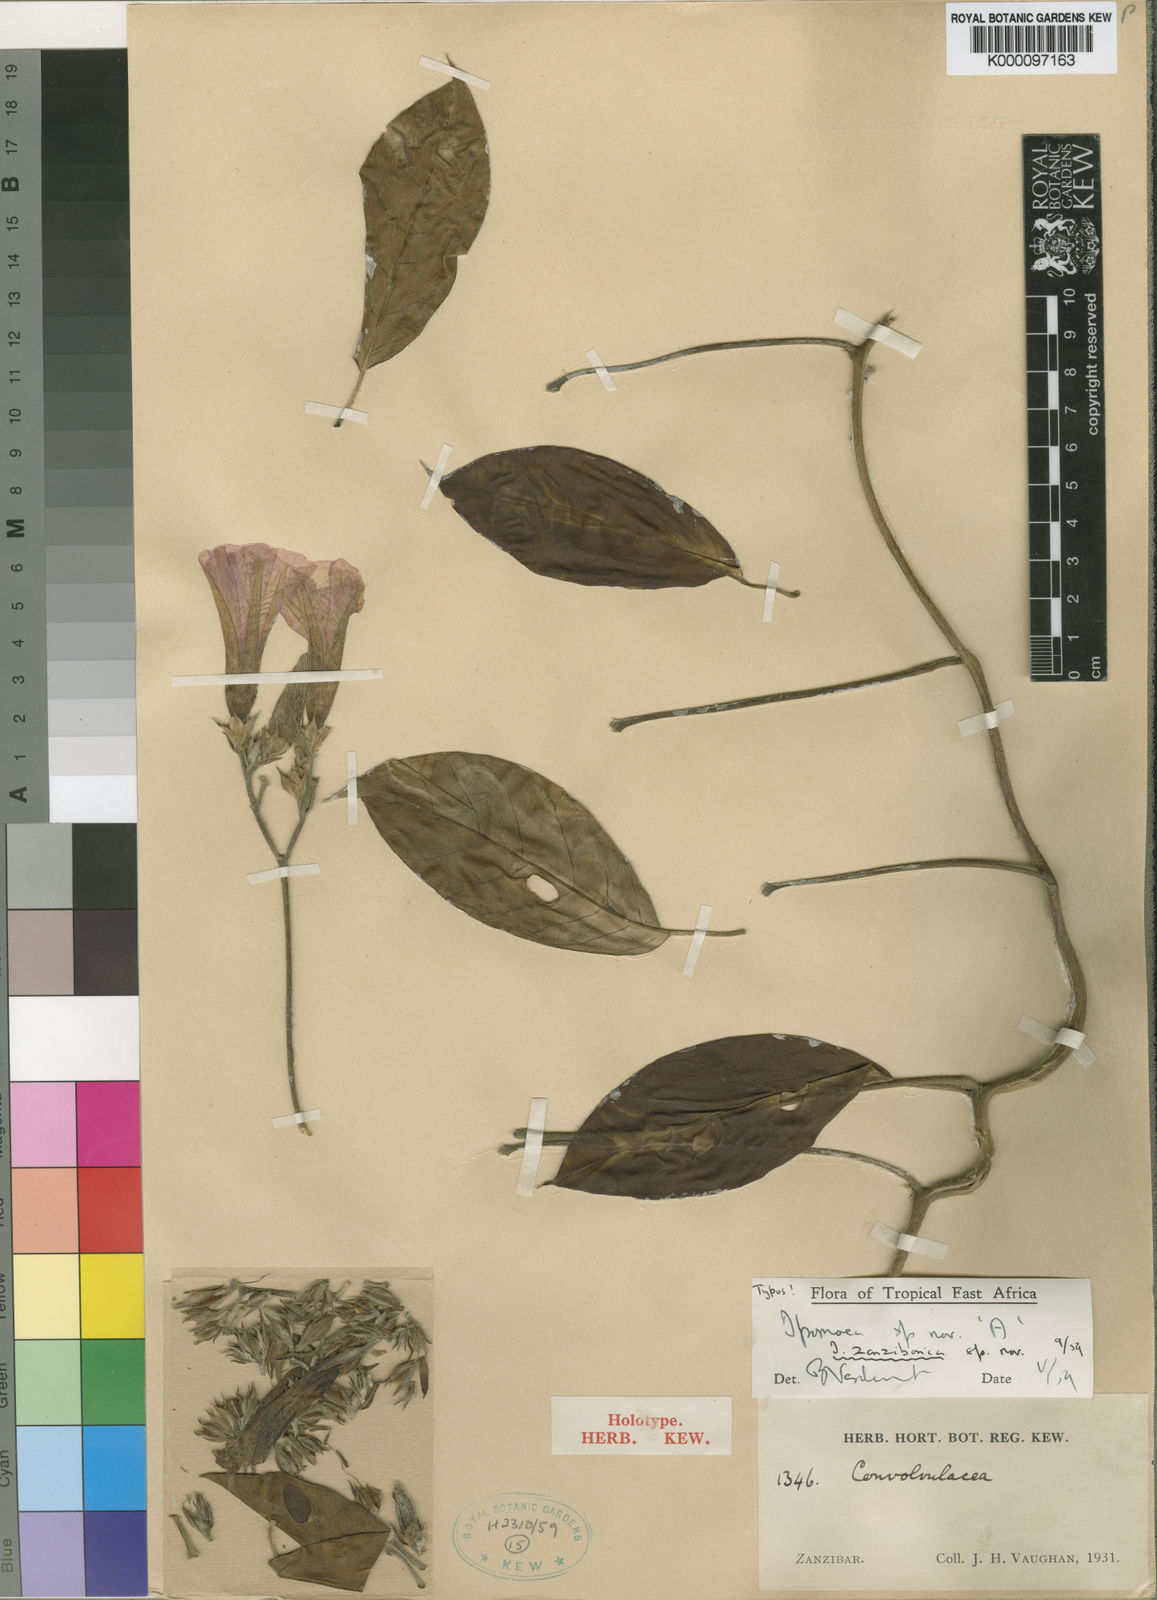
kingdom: Plantae
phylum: Tracheophyta
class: Magnoliopsida
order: Solanales
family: Convolvulaceae
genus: Ipomoea
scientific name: Ipomoea zanzibarica
